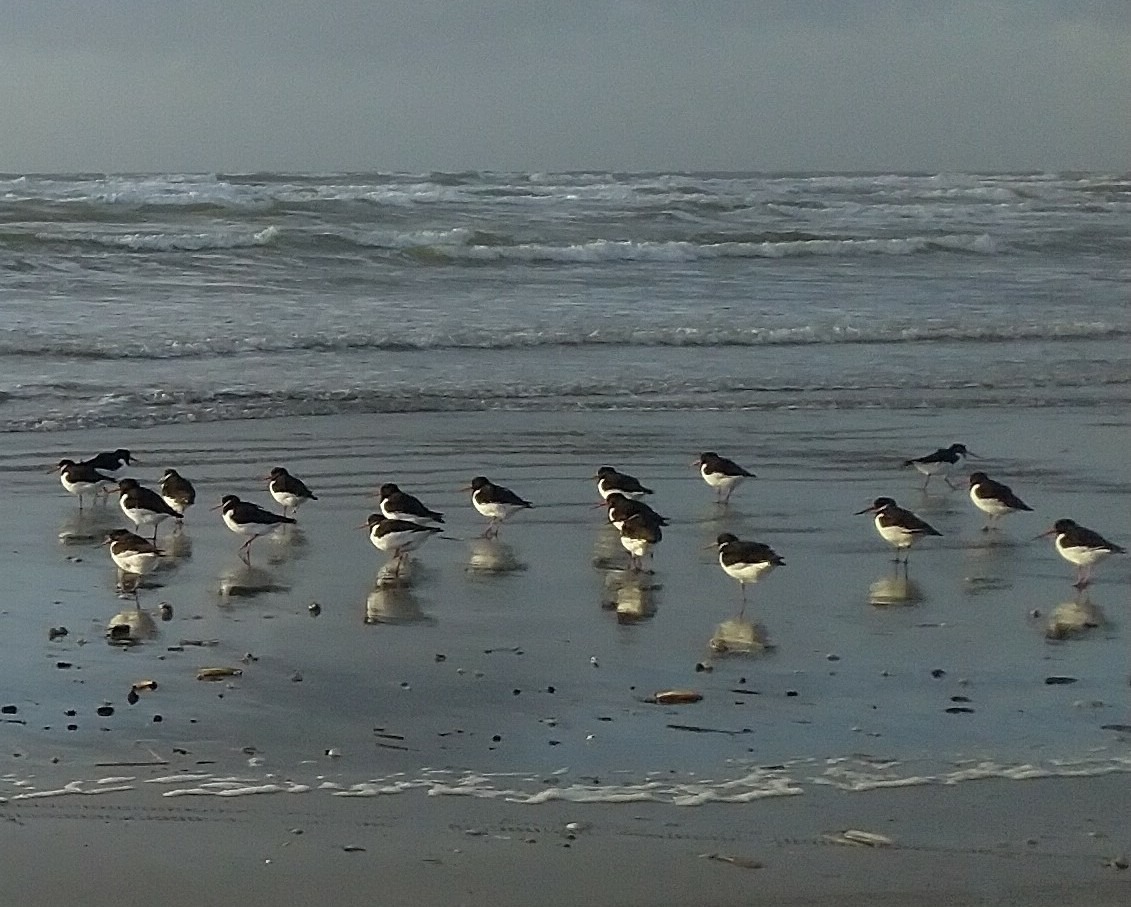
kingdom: Animalia
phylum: Chordata
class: Aves
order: Charadriiformes
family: Haematopodidae
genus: Haematopus
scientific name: Haematopus ostralegus
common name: Strandskade
